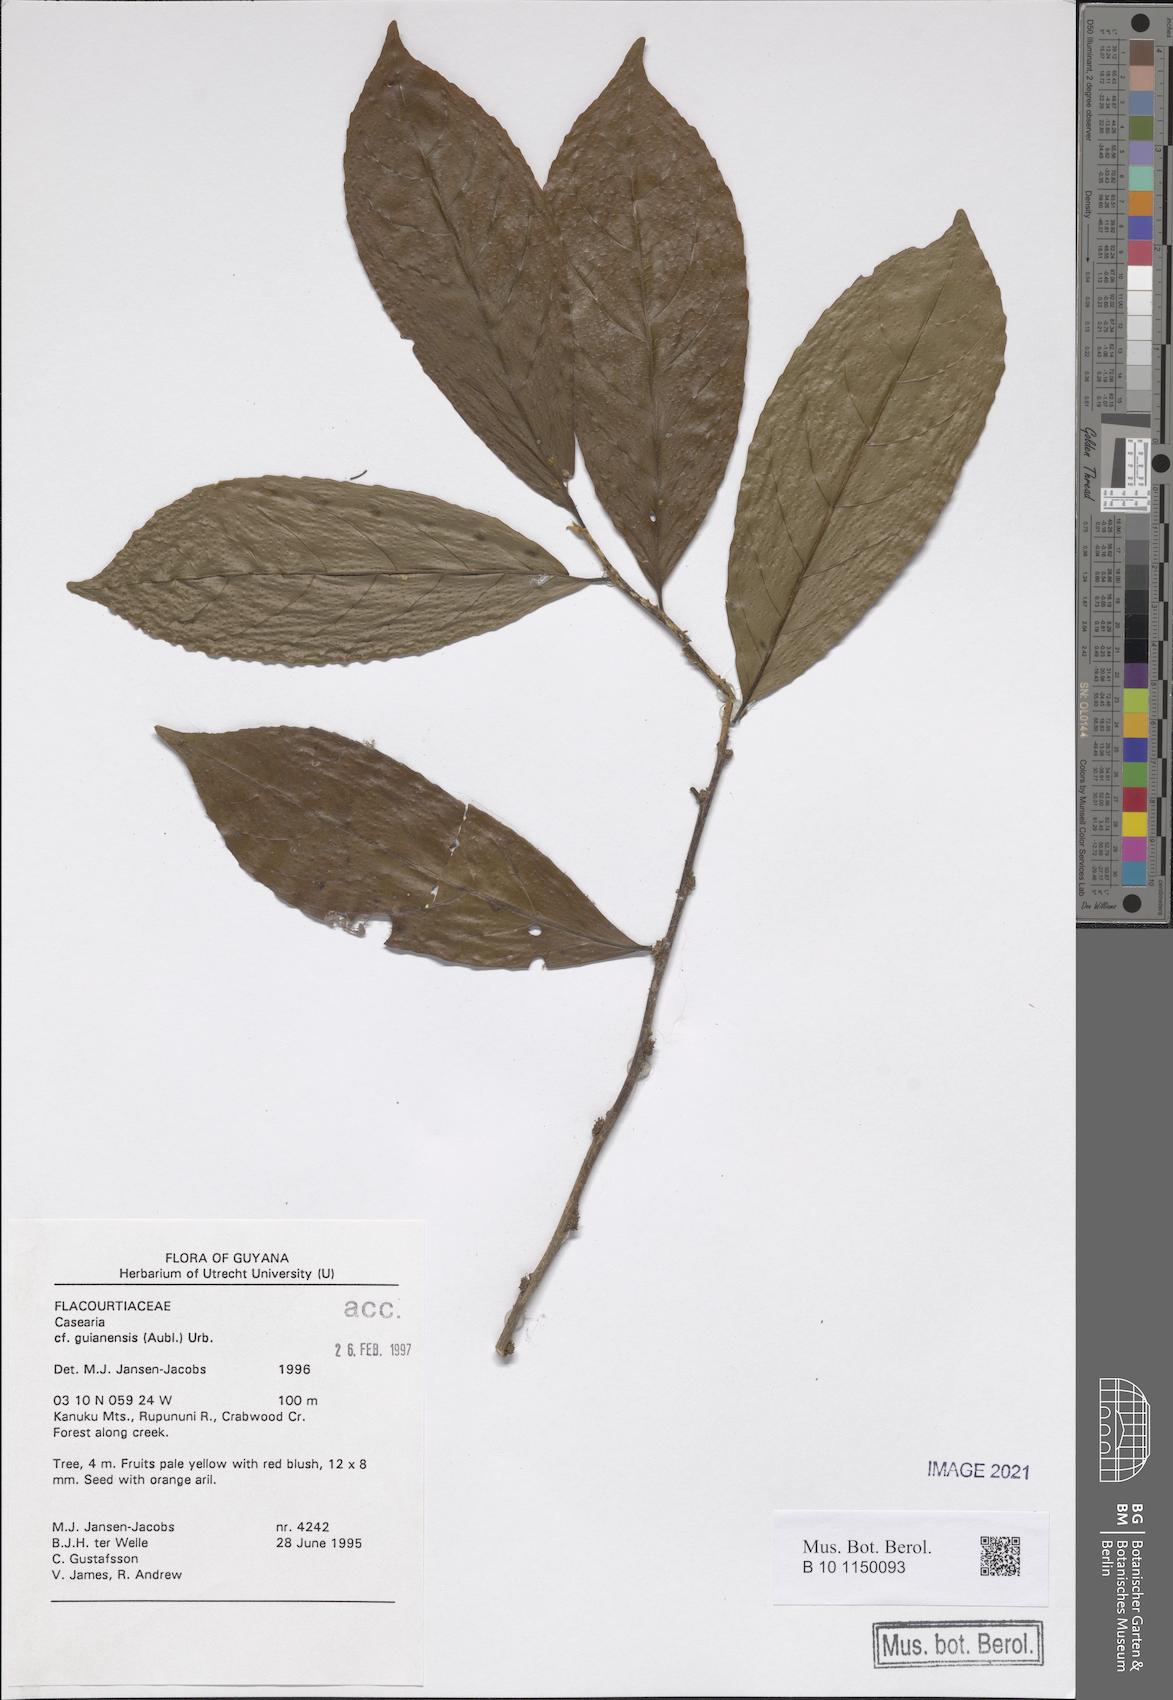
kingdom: Plantae
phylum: Tracheophyta
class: Magnoliopsida
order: Malpighiales
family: Salicaceae
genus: Casearia
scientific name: Casearia guianensis
